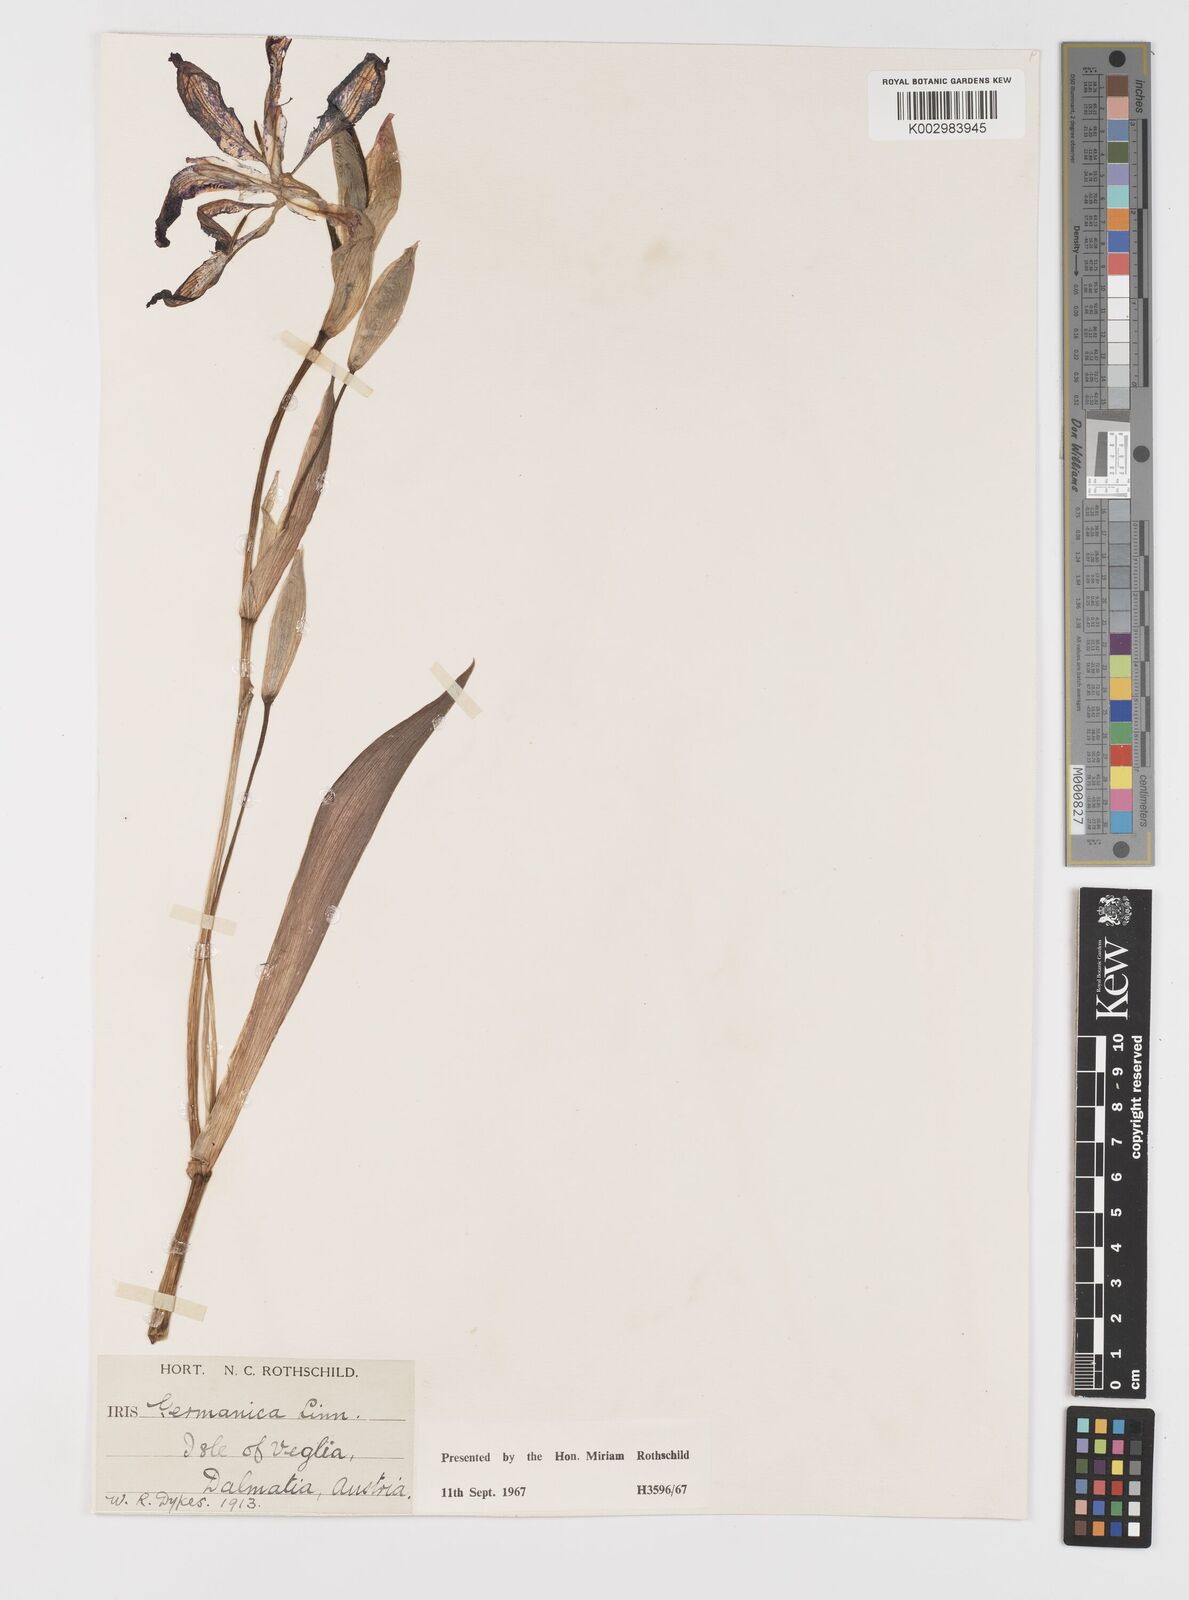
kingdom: Plantae
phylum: Tracheophyta
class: Liliopsida
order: Asparagales
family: Iridaceae
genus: Iris
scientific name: Iris germanica
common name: German iris
